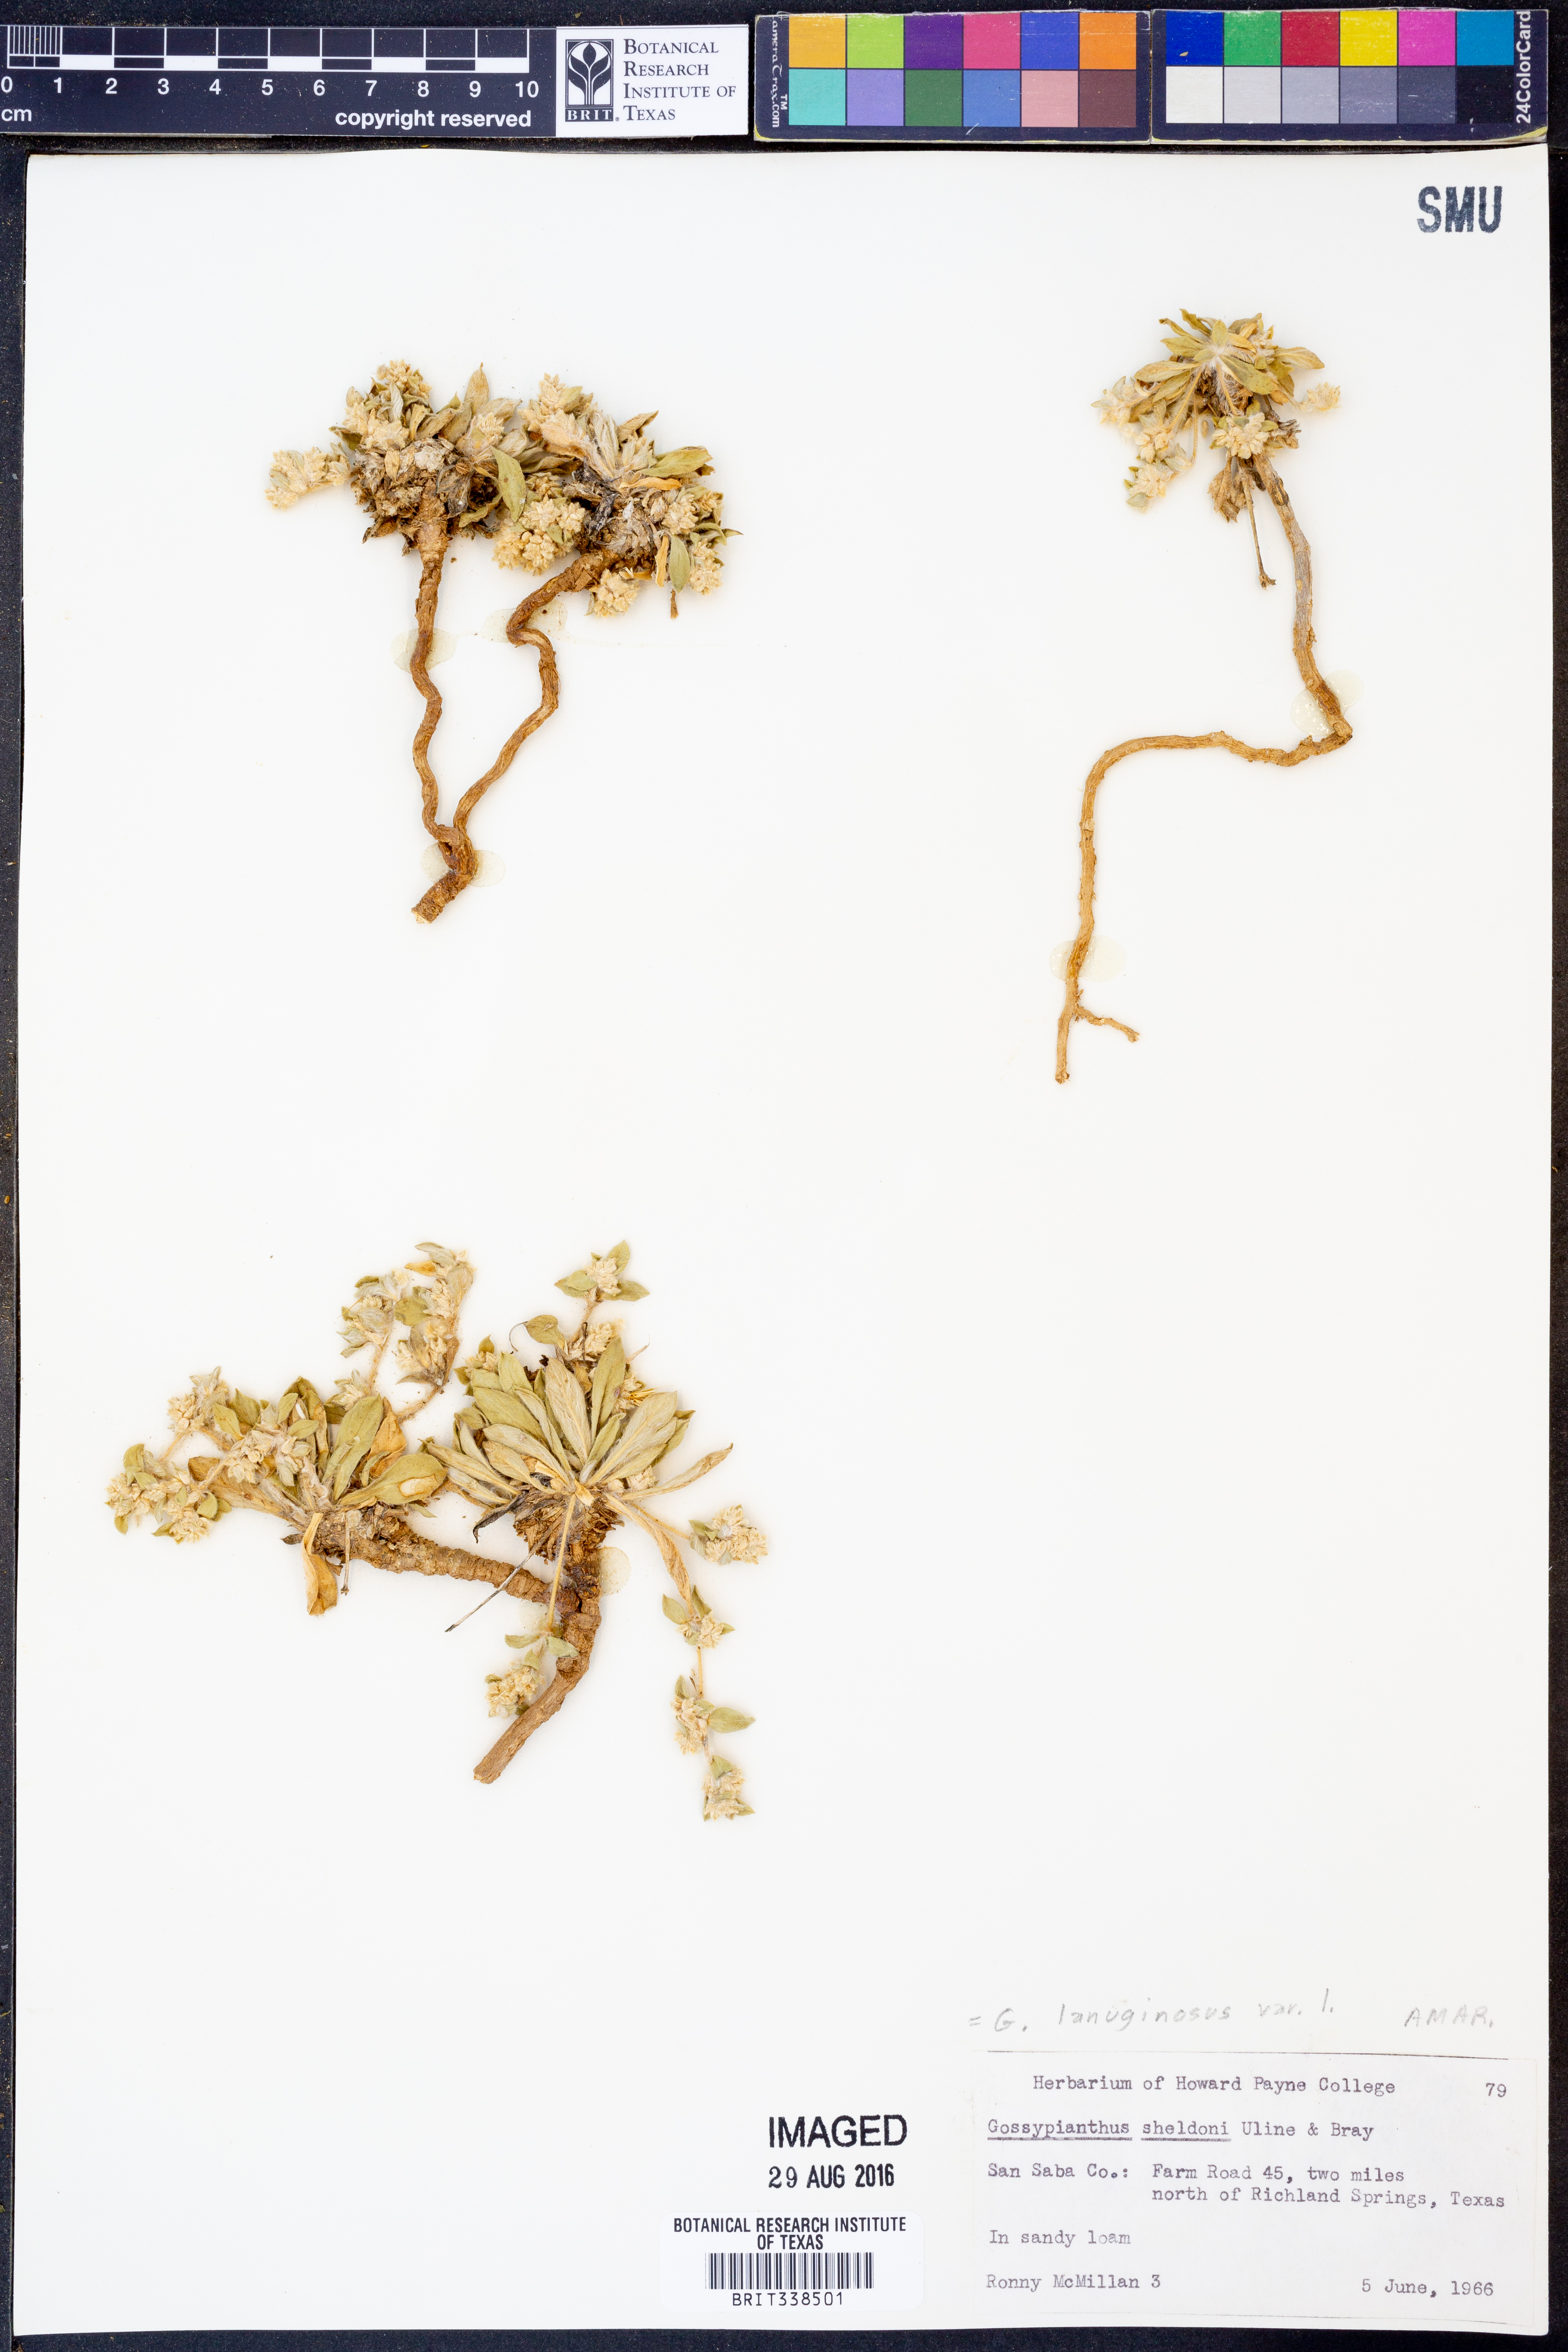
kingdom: Plantae
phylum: Tracheophyta
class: Magnoliopsida
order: Caryophyllales
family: Amaranthaceae
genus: Gomphrena
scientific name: Gomphrena lanuparonychioides
